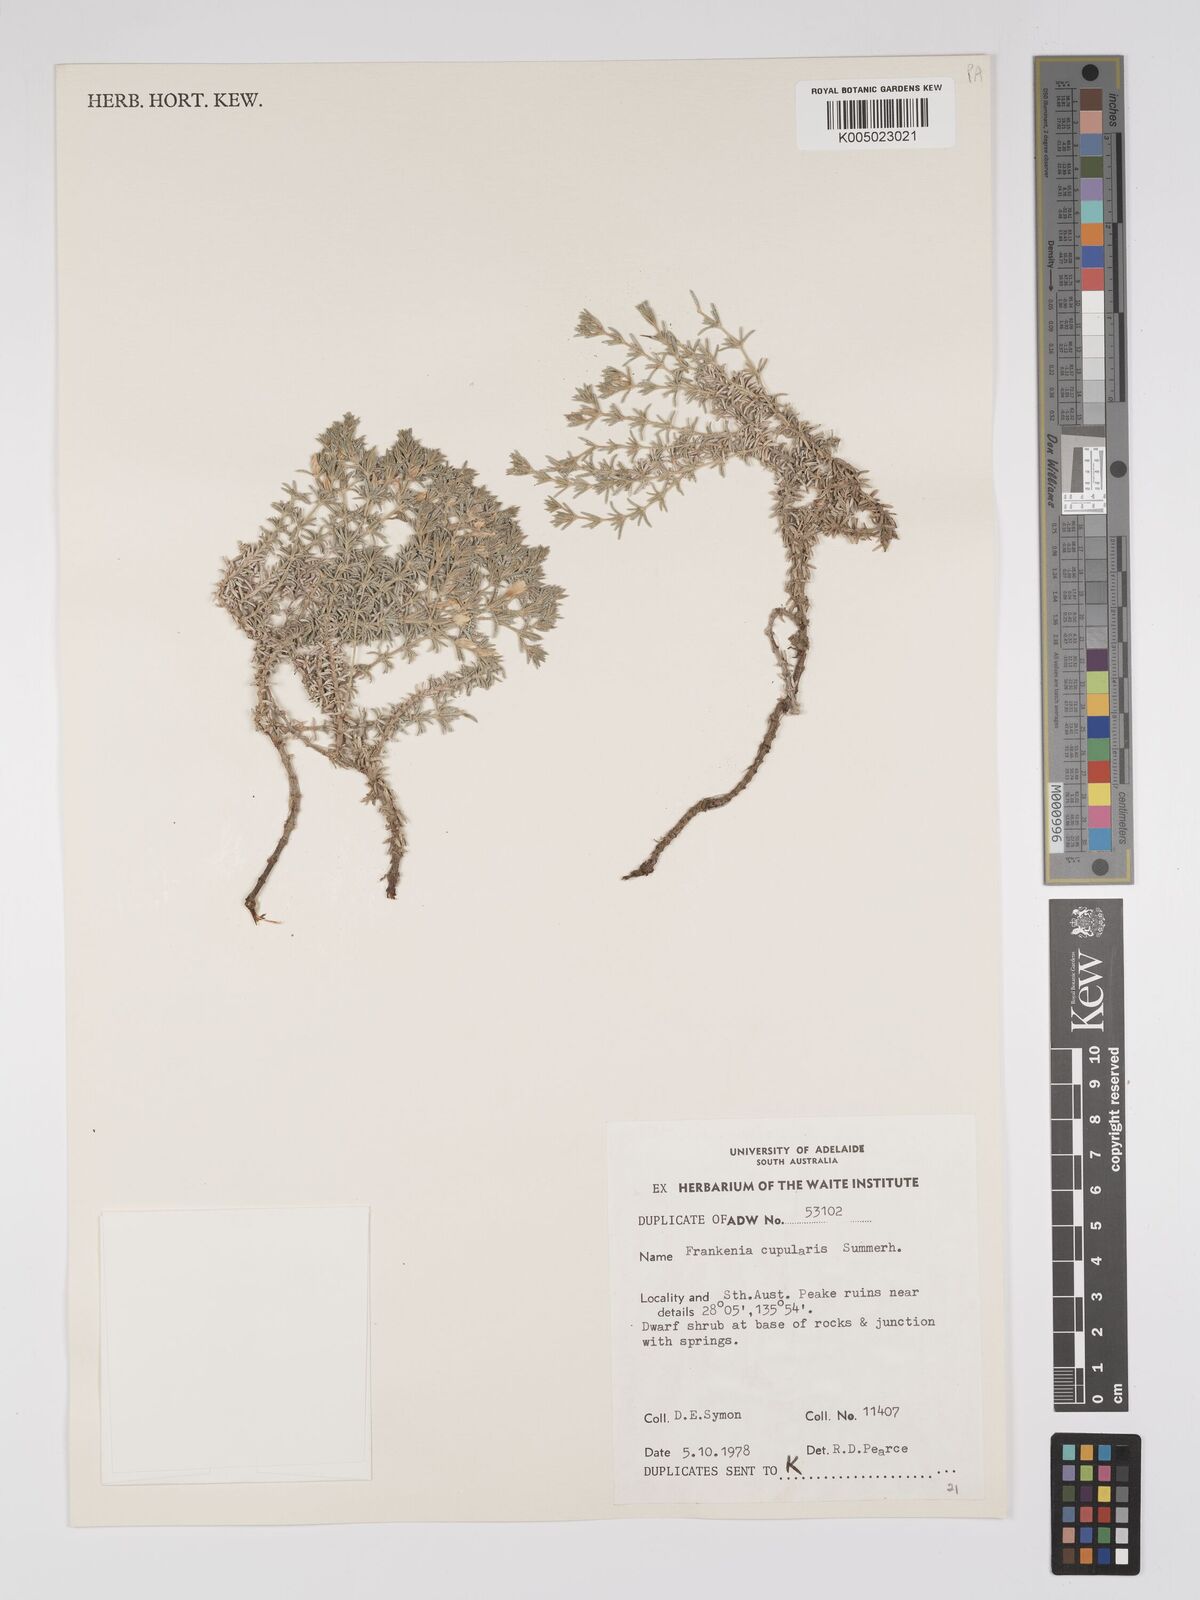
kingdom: Plantae
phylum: Tracheophyta
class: Magnoliopsida
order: Caryophyllales
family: Frankeniaceae
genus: Frankenia
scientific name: Frankenia cupularis
